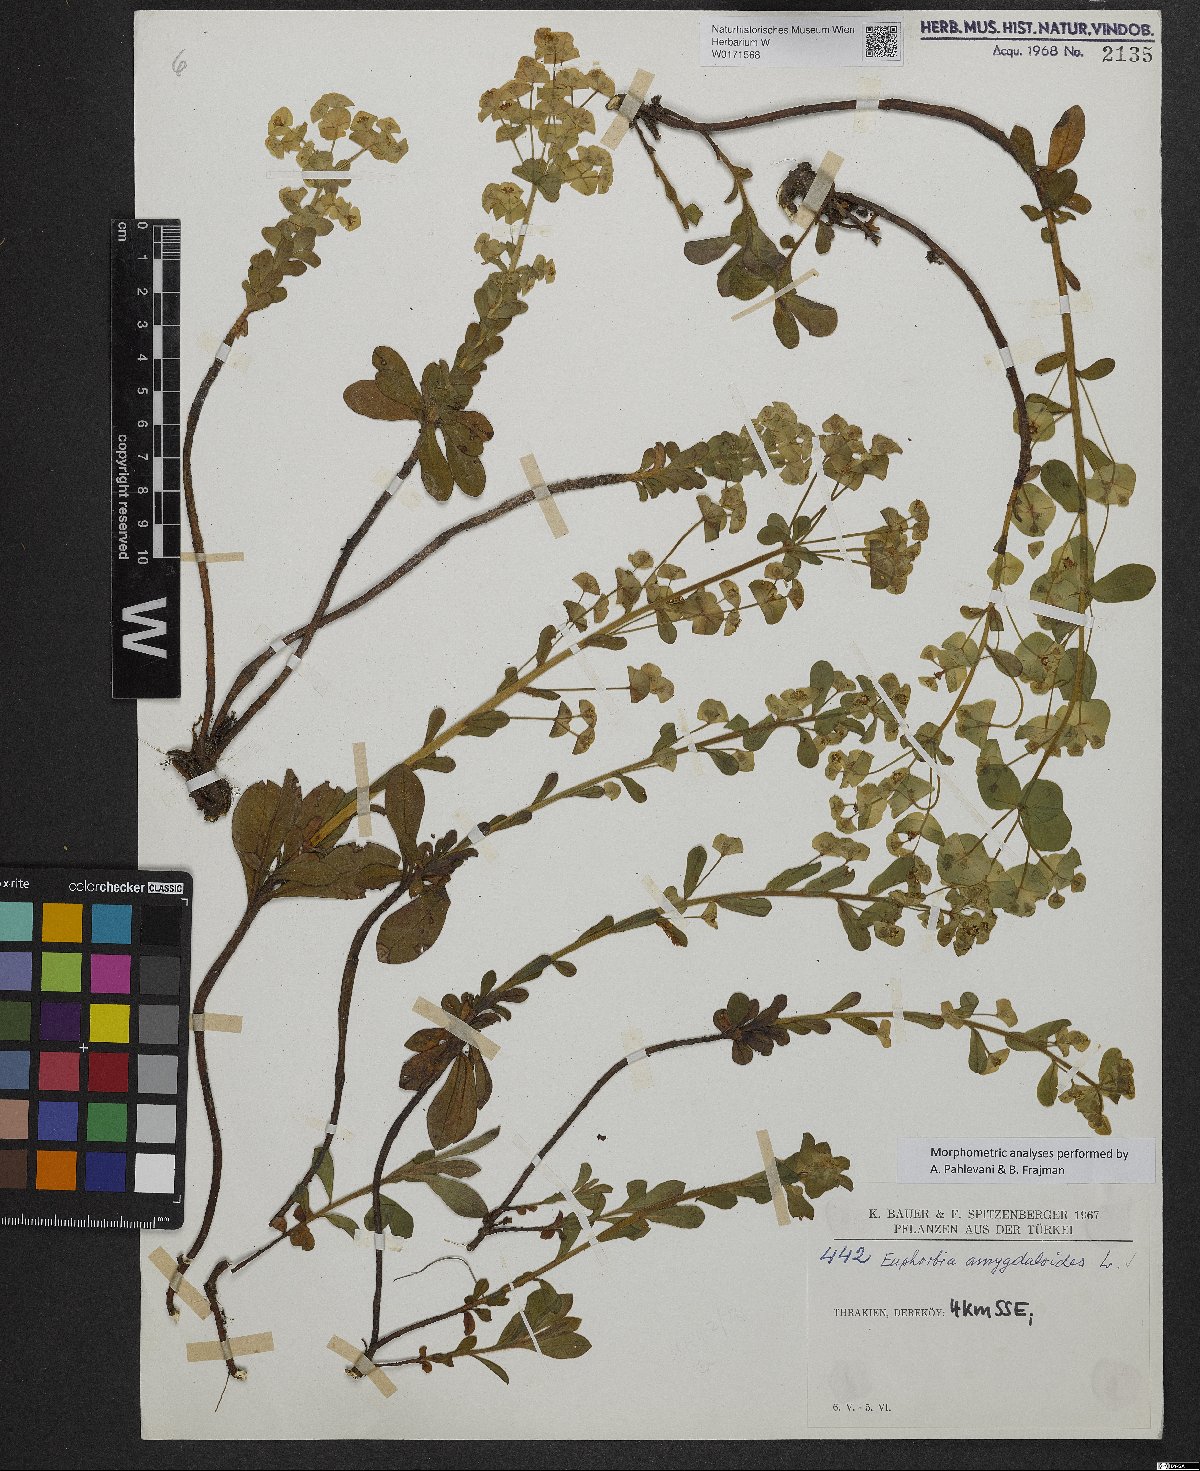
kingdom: Plantae
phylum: Tracheophyta
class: Magnoliopsida
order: Malpighiales
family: Euphorbiaceae
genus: Euphorbia
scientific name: Euphorbia amygdaloides
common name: Wood spurge
